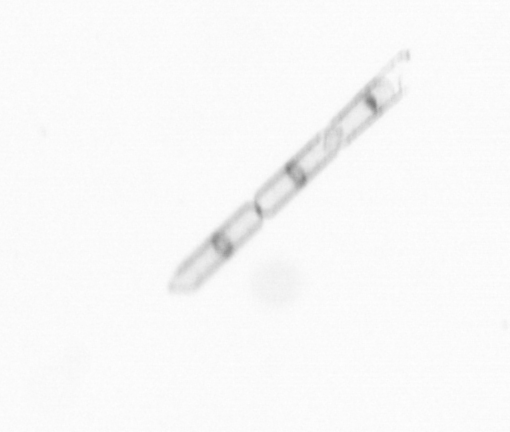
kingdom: Chromista
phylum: Ochrophyta
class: Bacillariophyceae
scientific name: Bacillariophyceae
